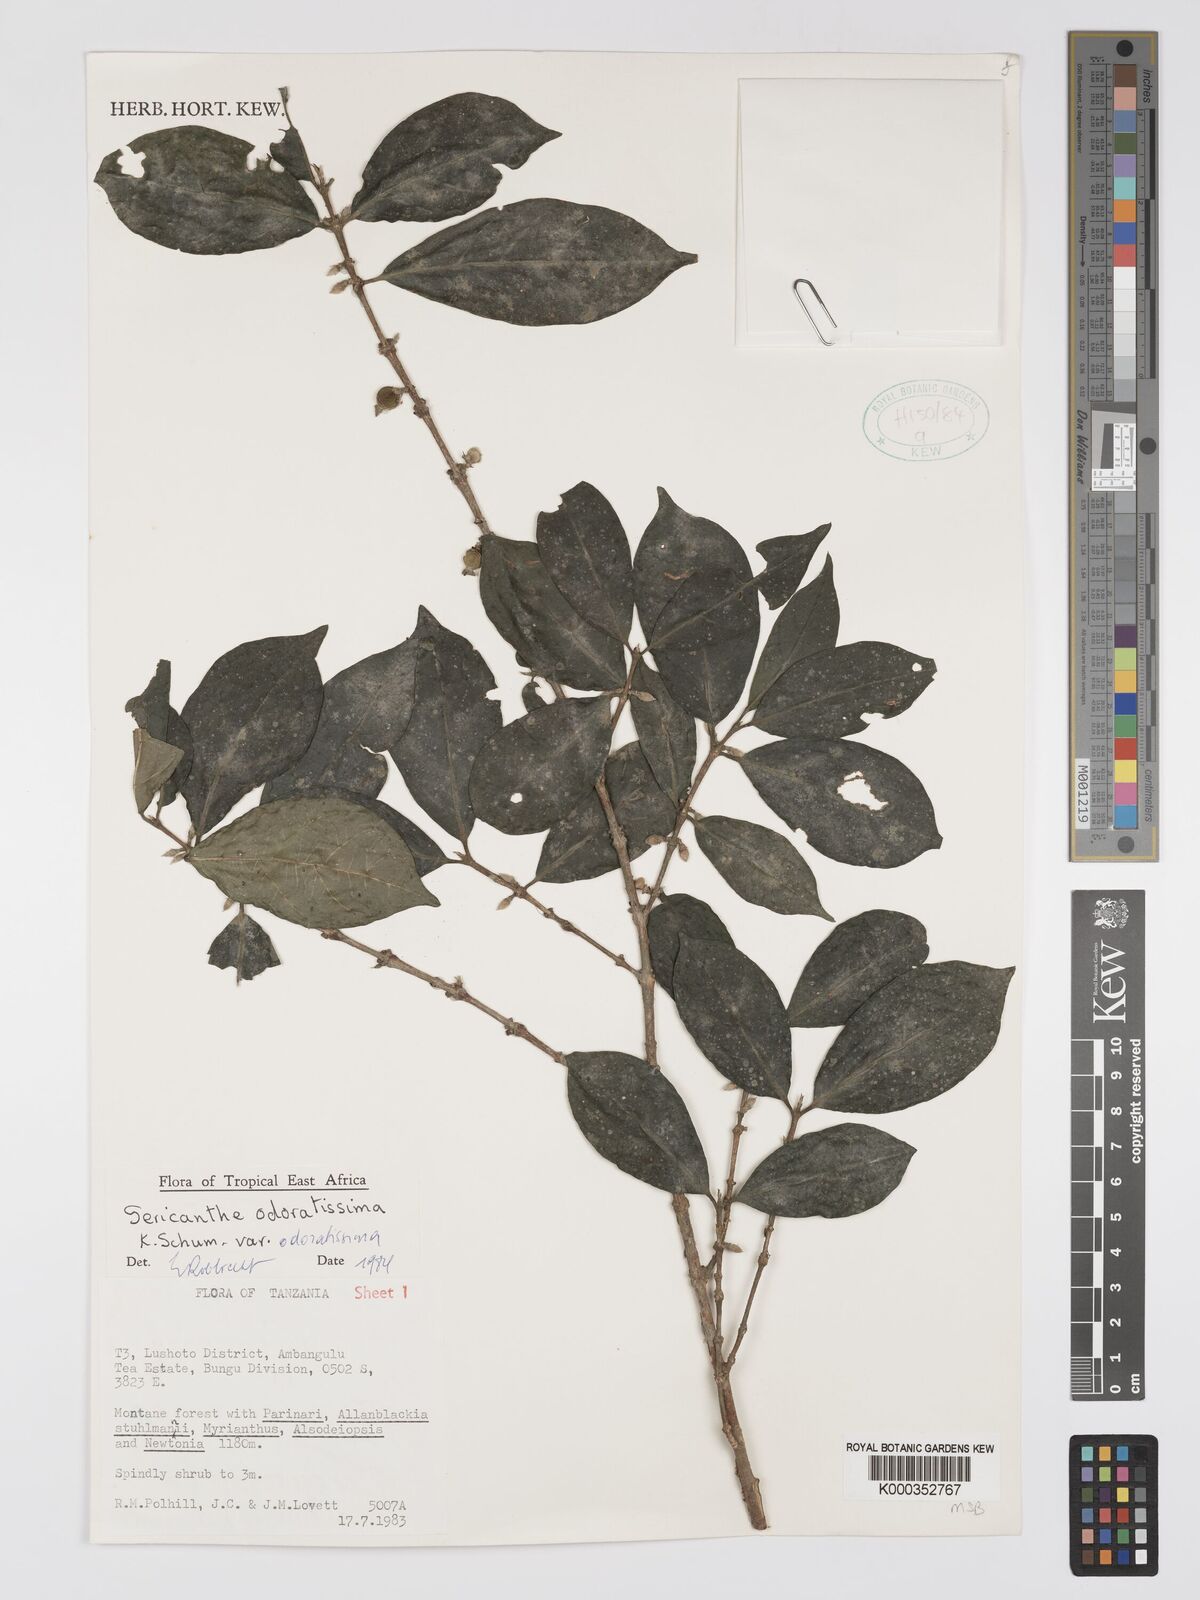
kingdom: Plantae
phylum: Tracheophyta
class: Magnoliopsida
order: Gentianales
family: Rubiaceae
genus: Sericanthe
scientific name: Sericanthe odoratissima
